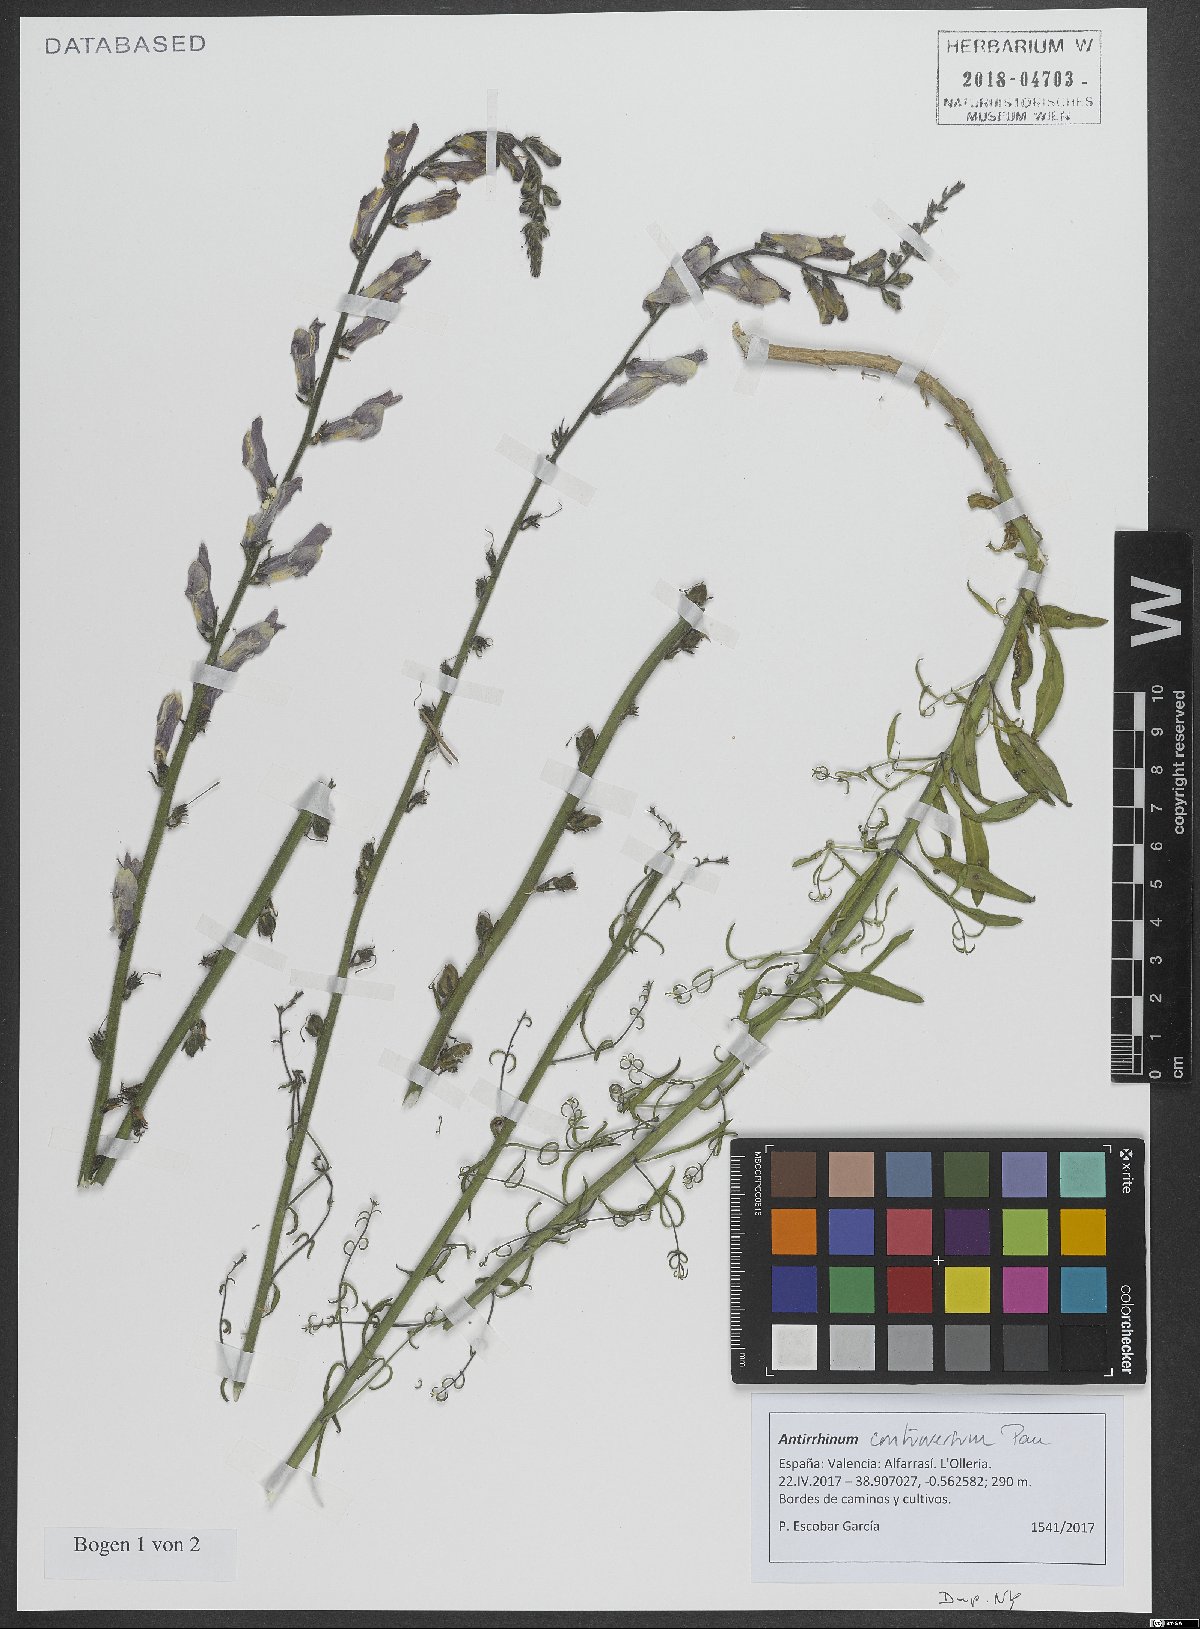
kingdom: Plantae
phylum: Tracheophyta
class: Magnoliopsida
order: Lamiales
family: Plantaginaceae
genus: Antirrhinum
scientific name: Antirrhinum controversum
